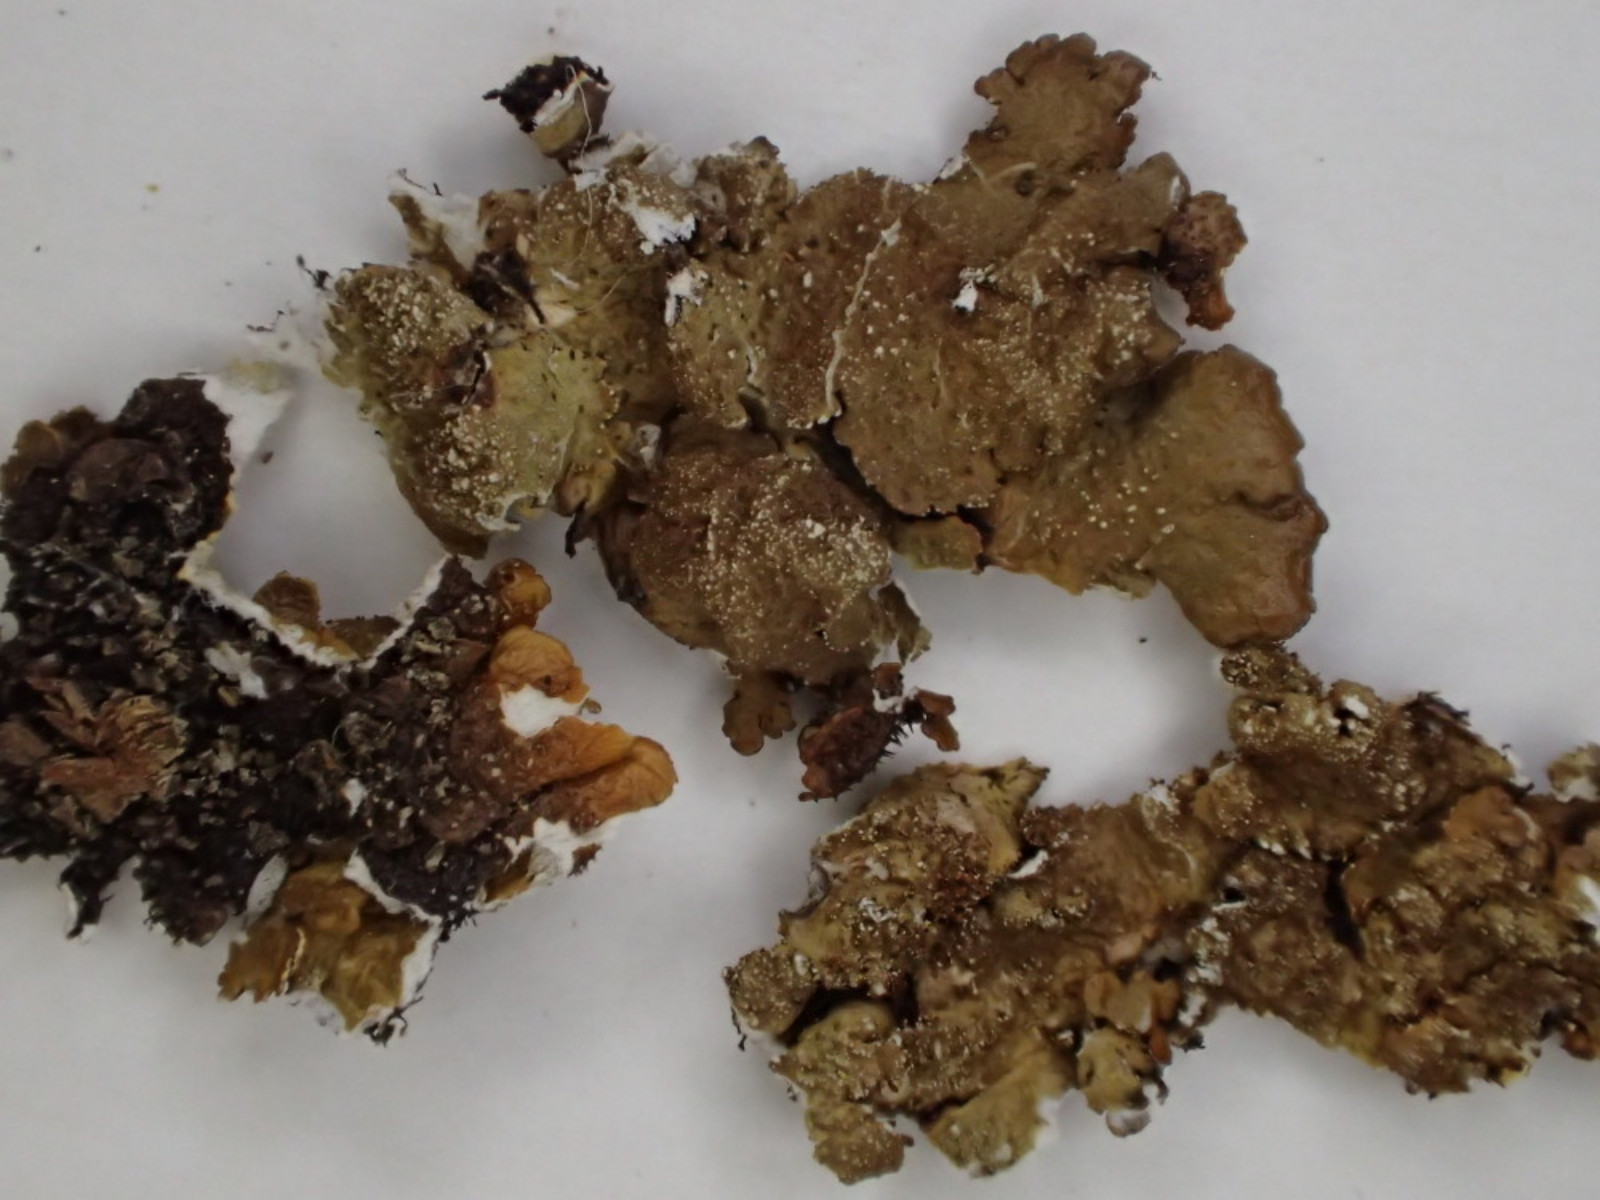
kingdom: Fungi
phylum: Ascomycota
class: Lecanoromycetes
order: Lecanorales
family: Parmeliaceae
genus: Melanelixia
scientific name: Melanelixia subaurifera
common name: guldpudret skållav
